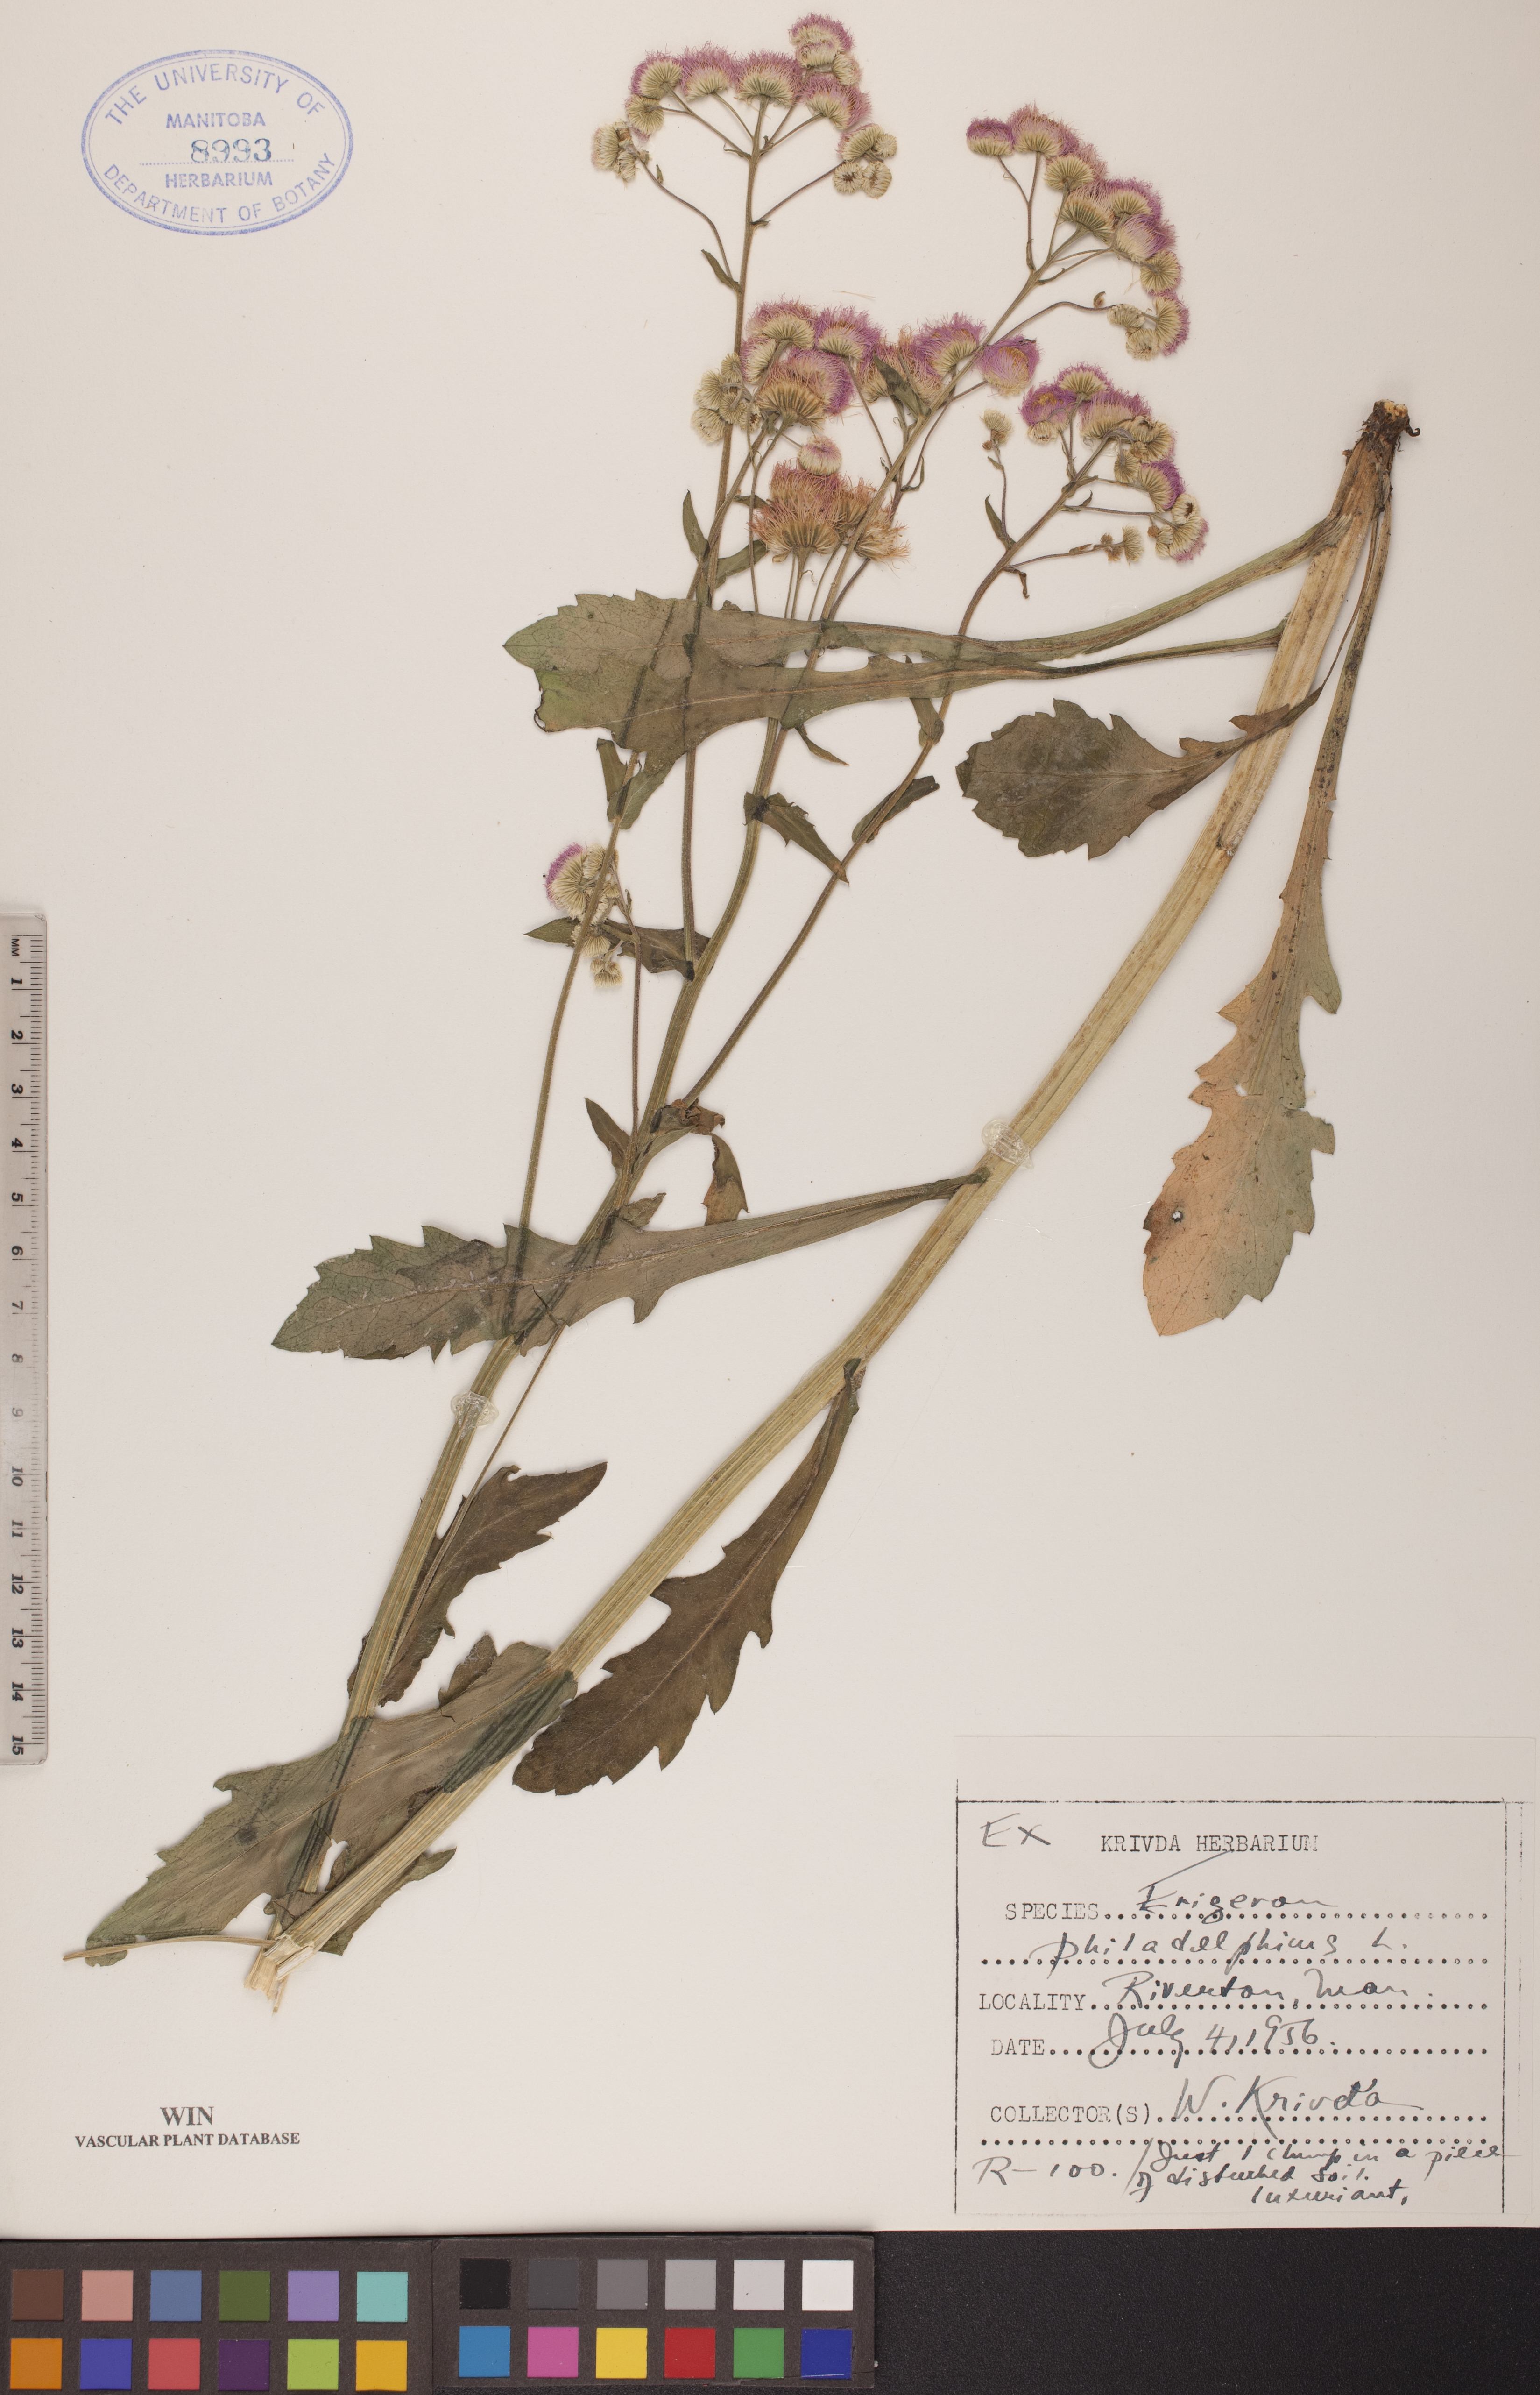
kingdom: Plantae
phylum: Tracheophyta
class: Magnoliopsida
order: Asterales
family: Asteraceae
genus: Erigeron
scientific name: Erigeron philadelphicus
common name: Robin's-plantain
